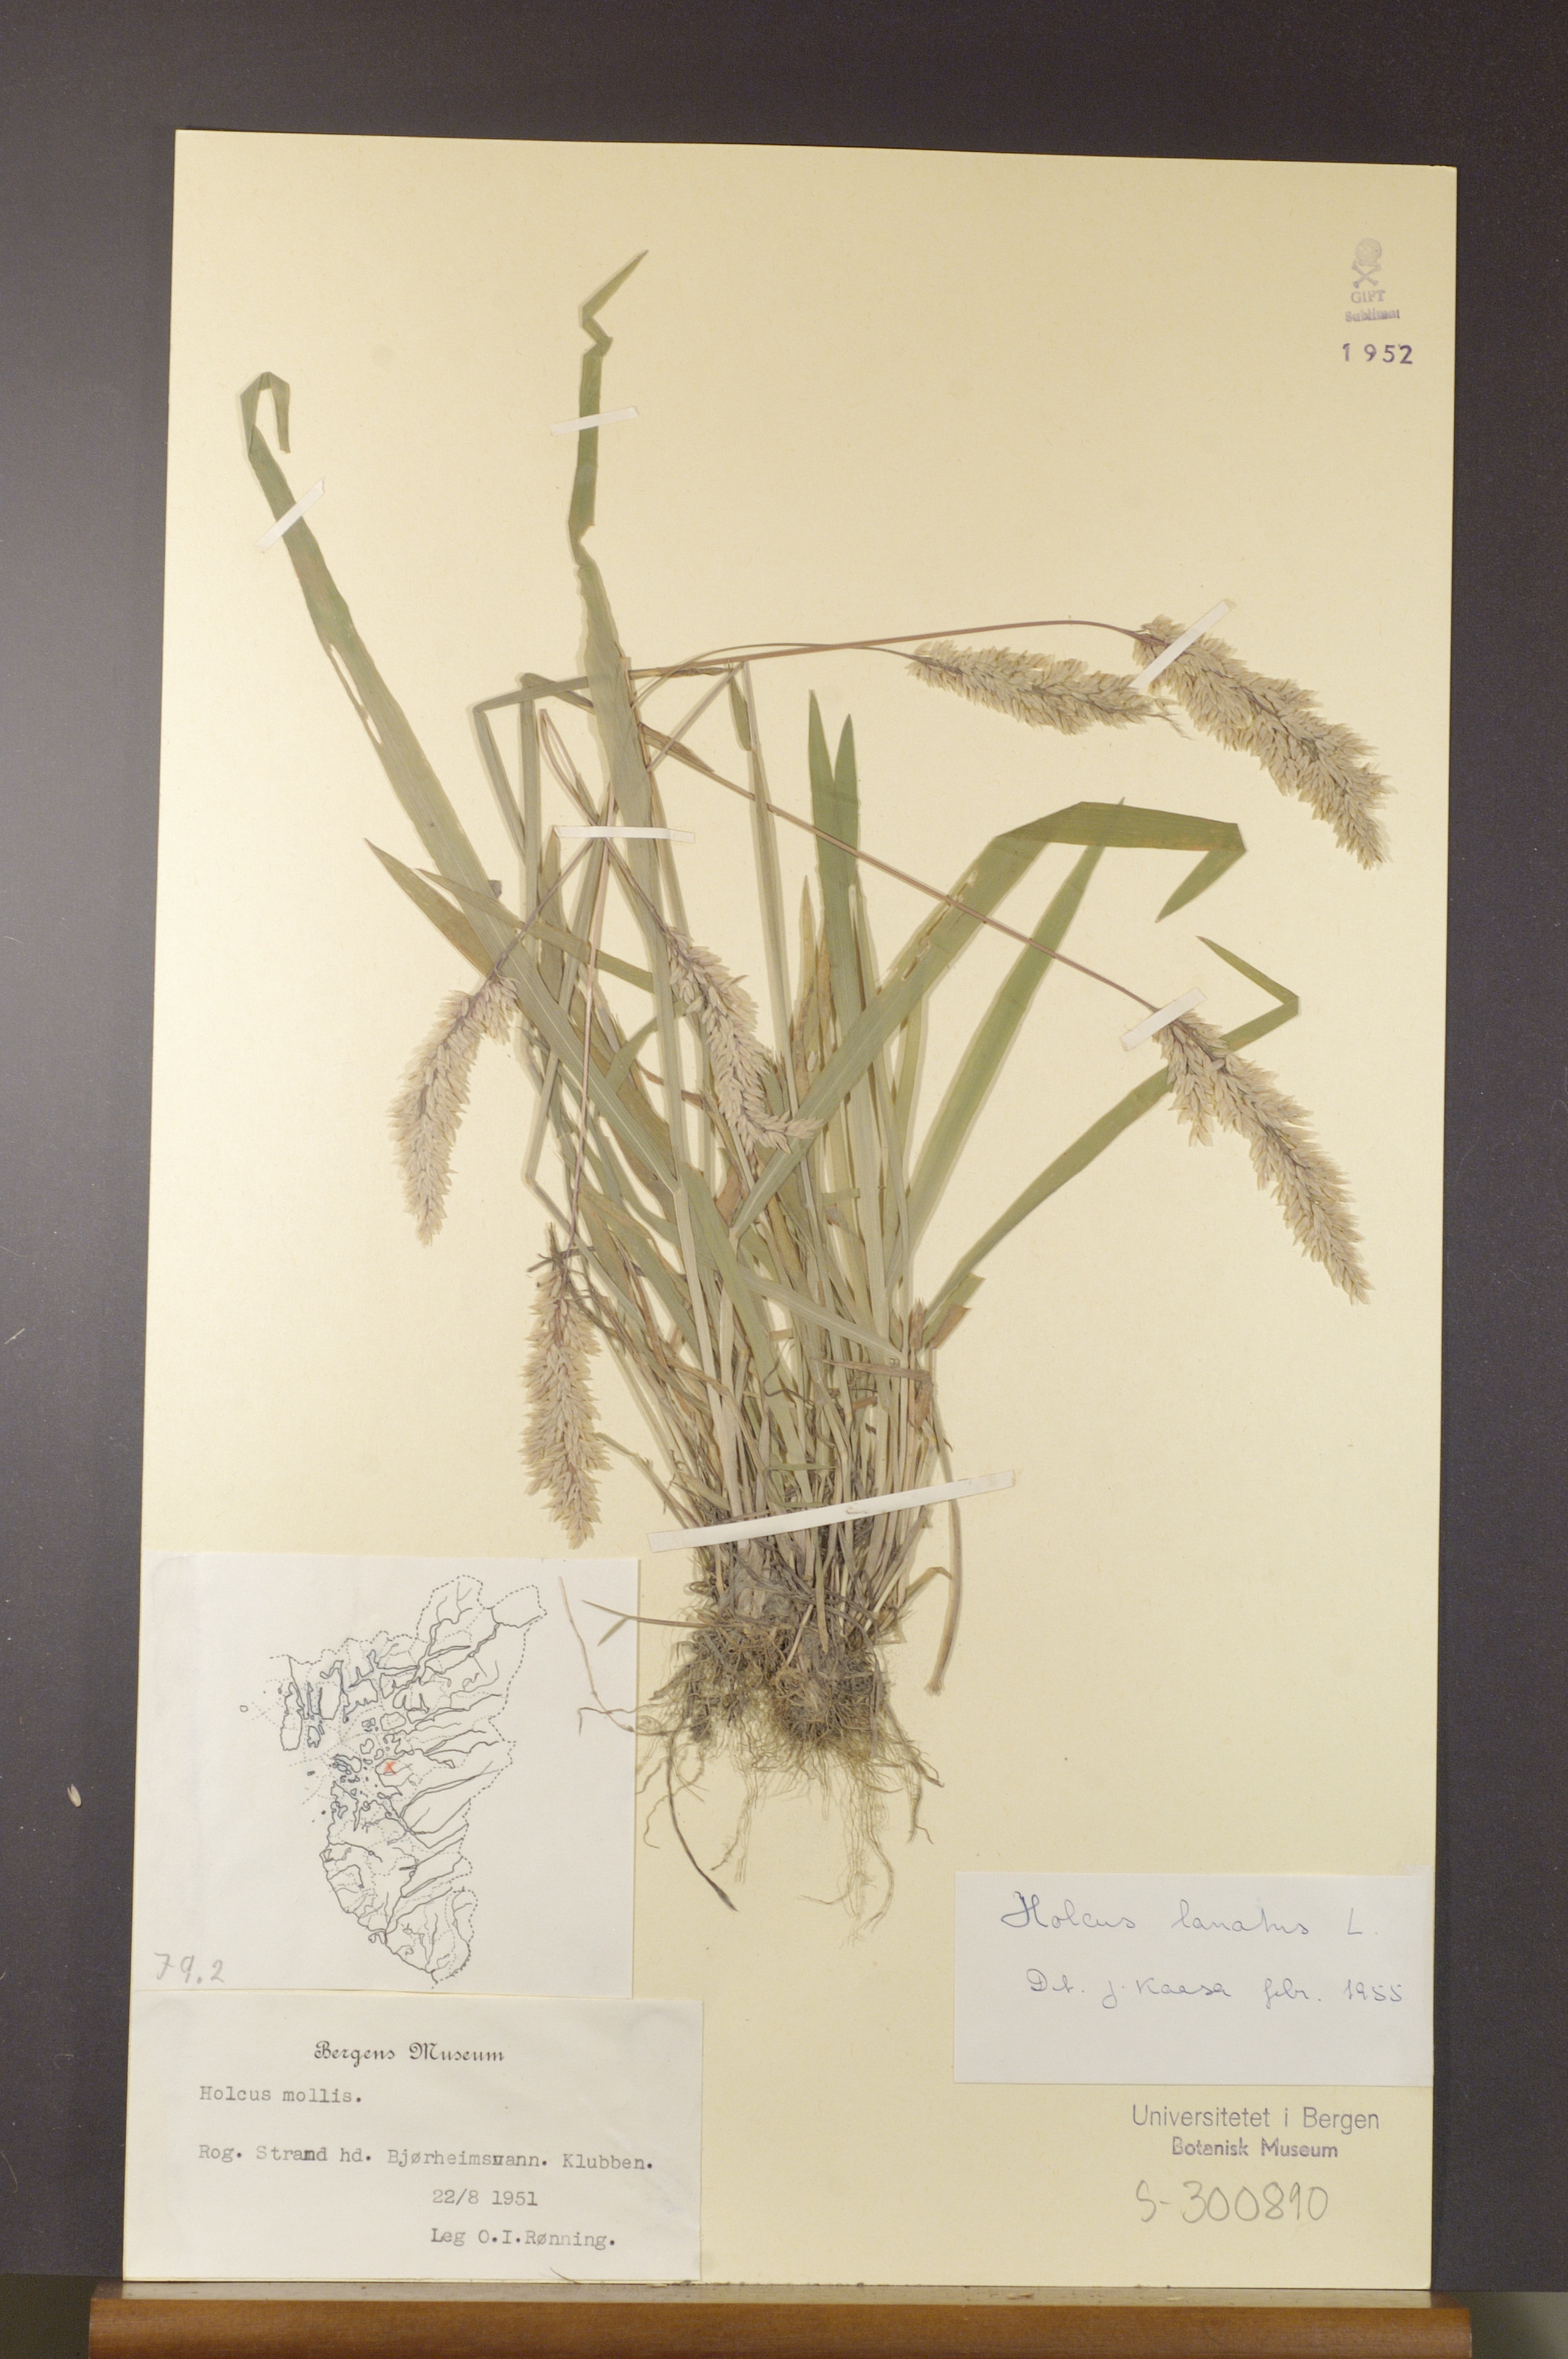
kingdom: Plantae
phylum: Tracheophyta
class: Liliopsida
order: Poales
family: Poaceae
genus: Holcus
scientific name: Holcus lanatus
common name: Yorkshire-fog
